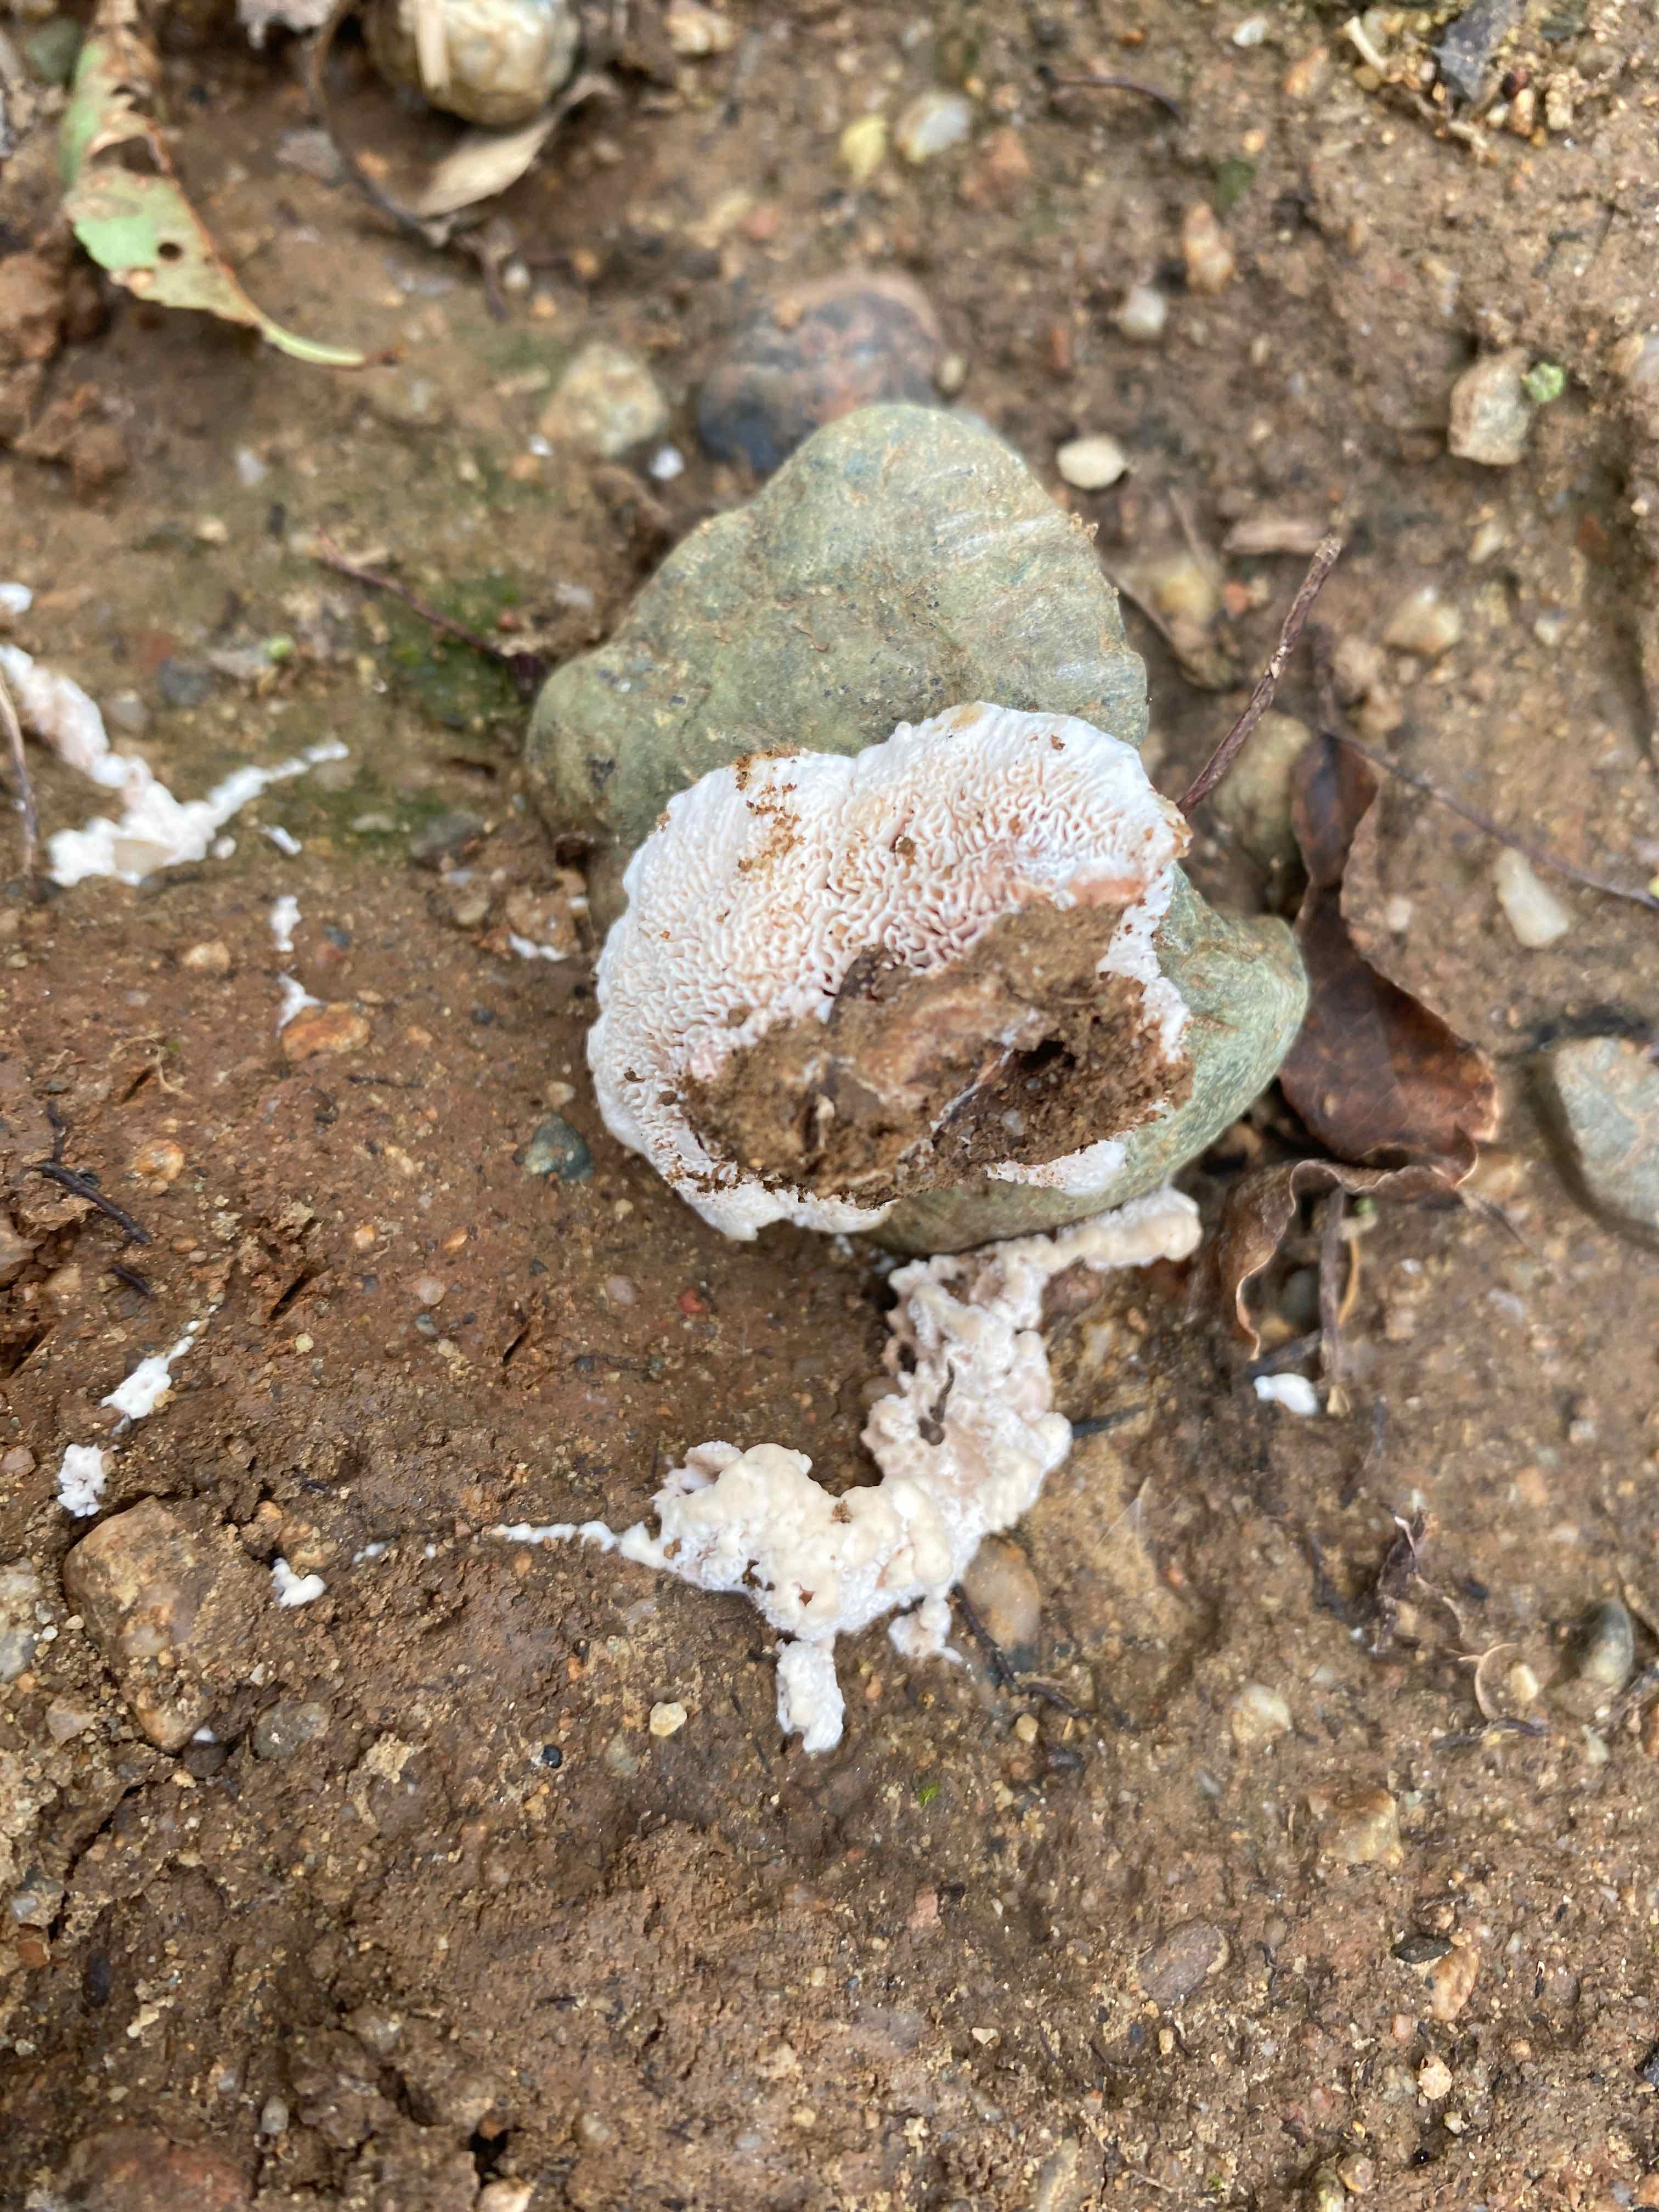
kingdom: Fungi
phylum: Basidiomycota
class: Agaricomycetes
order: Polyporales
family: Podoscyphaceae
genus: Abortiporus
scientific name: Abortiporus biennis
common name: rødmende pjalteporesvamp
